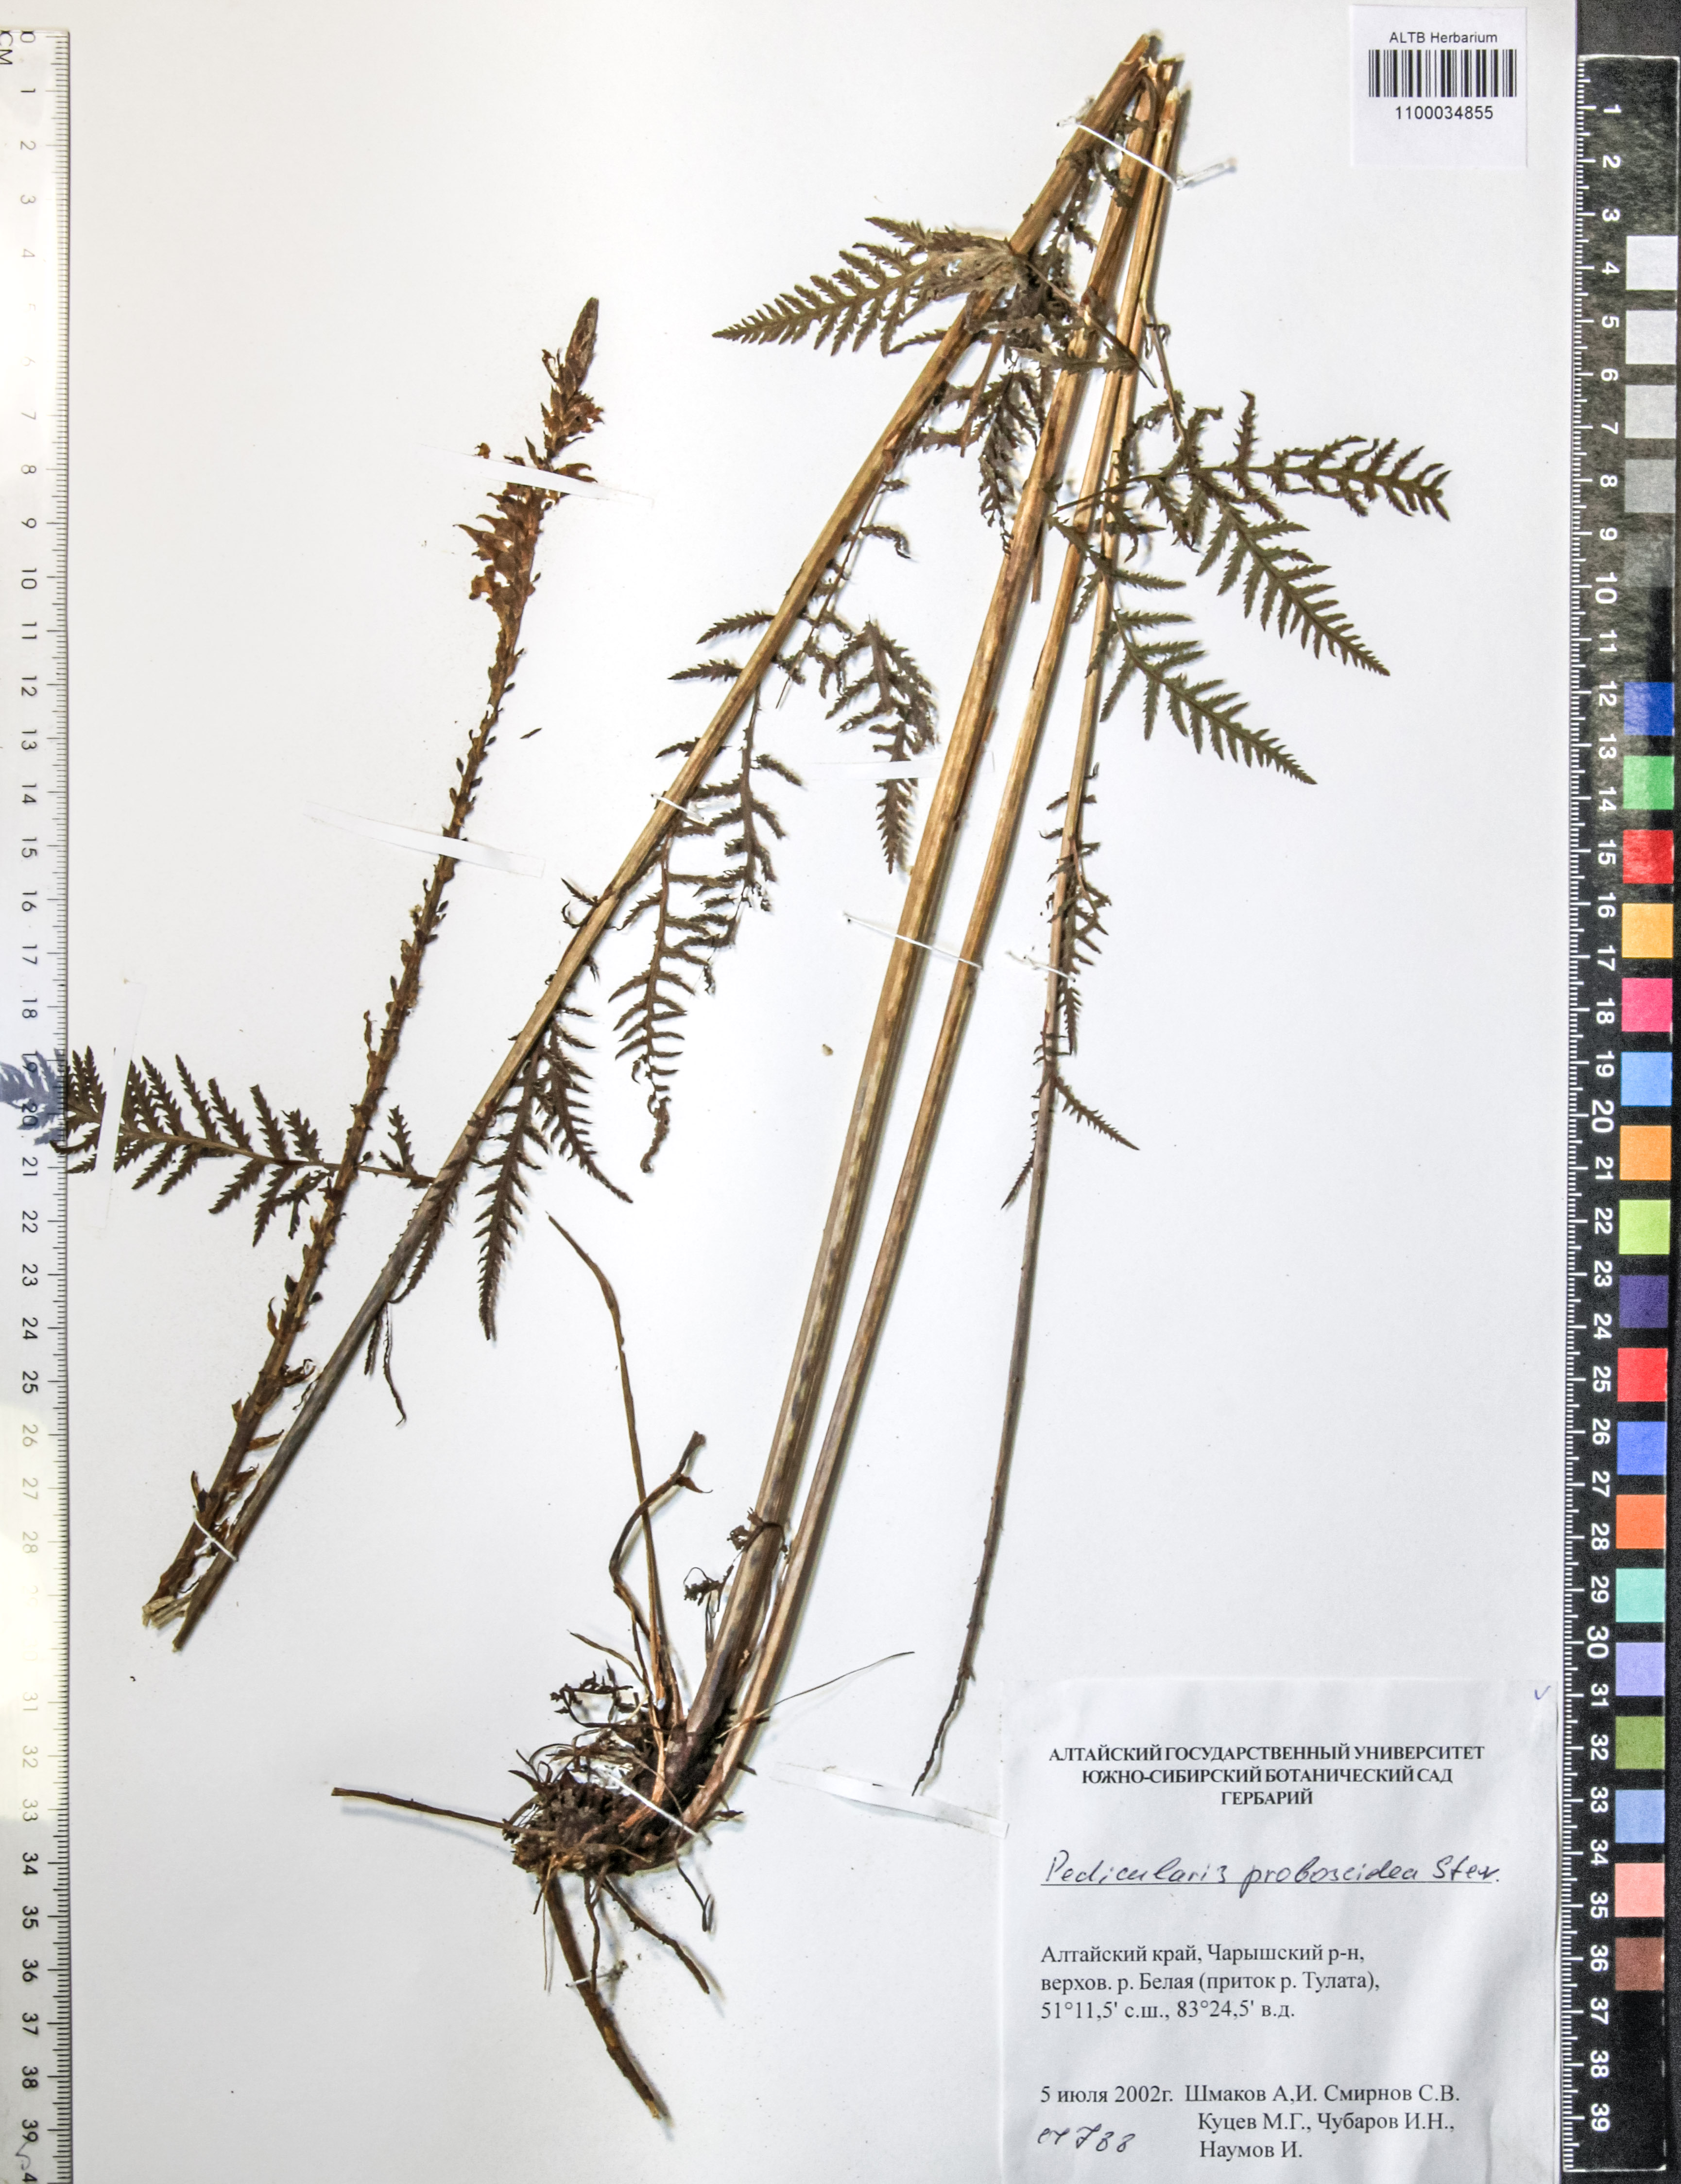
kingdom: Plantae
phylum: Tracheophyta
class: Magnoliopsida
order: Lamiales
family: Orobanchaceae
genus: Pedicularis
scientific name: Pedicularis proboscidea
